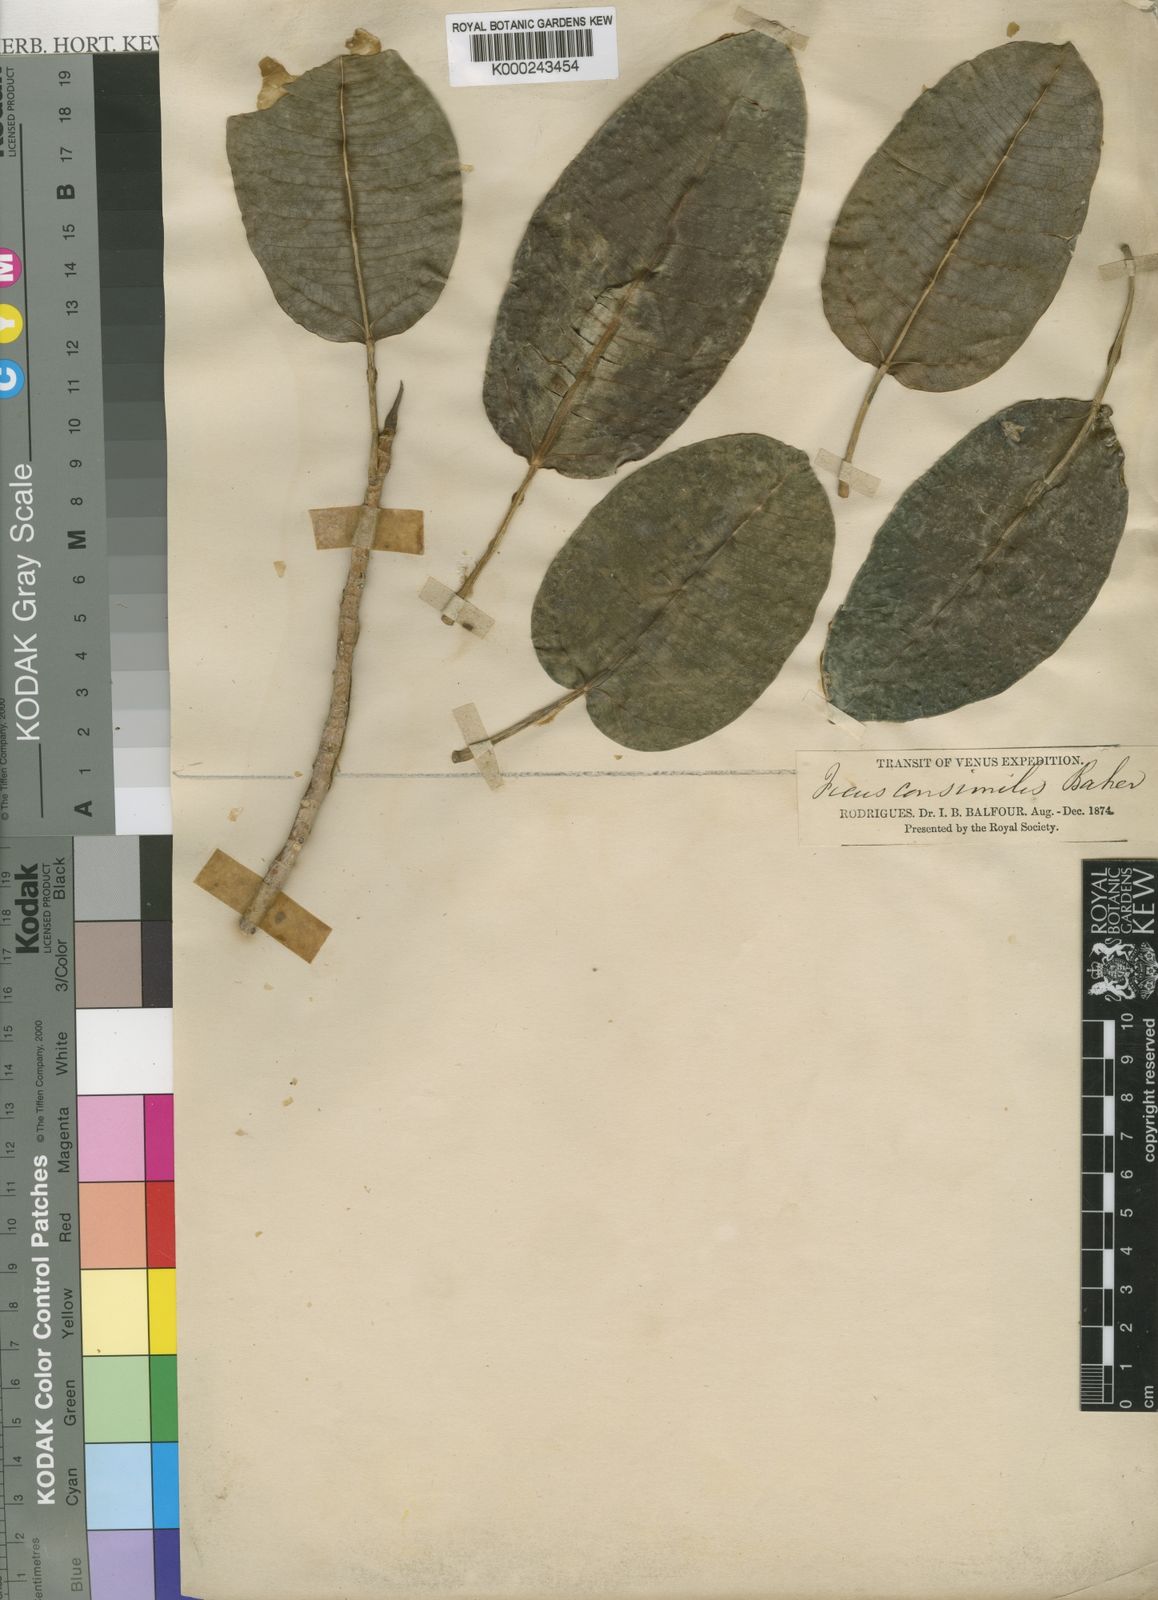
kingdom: Plantae
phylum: Tracheophyta
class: Magnoliopsida
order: Rosales
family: Moraceae
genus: Ficus
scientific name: Ficus
